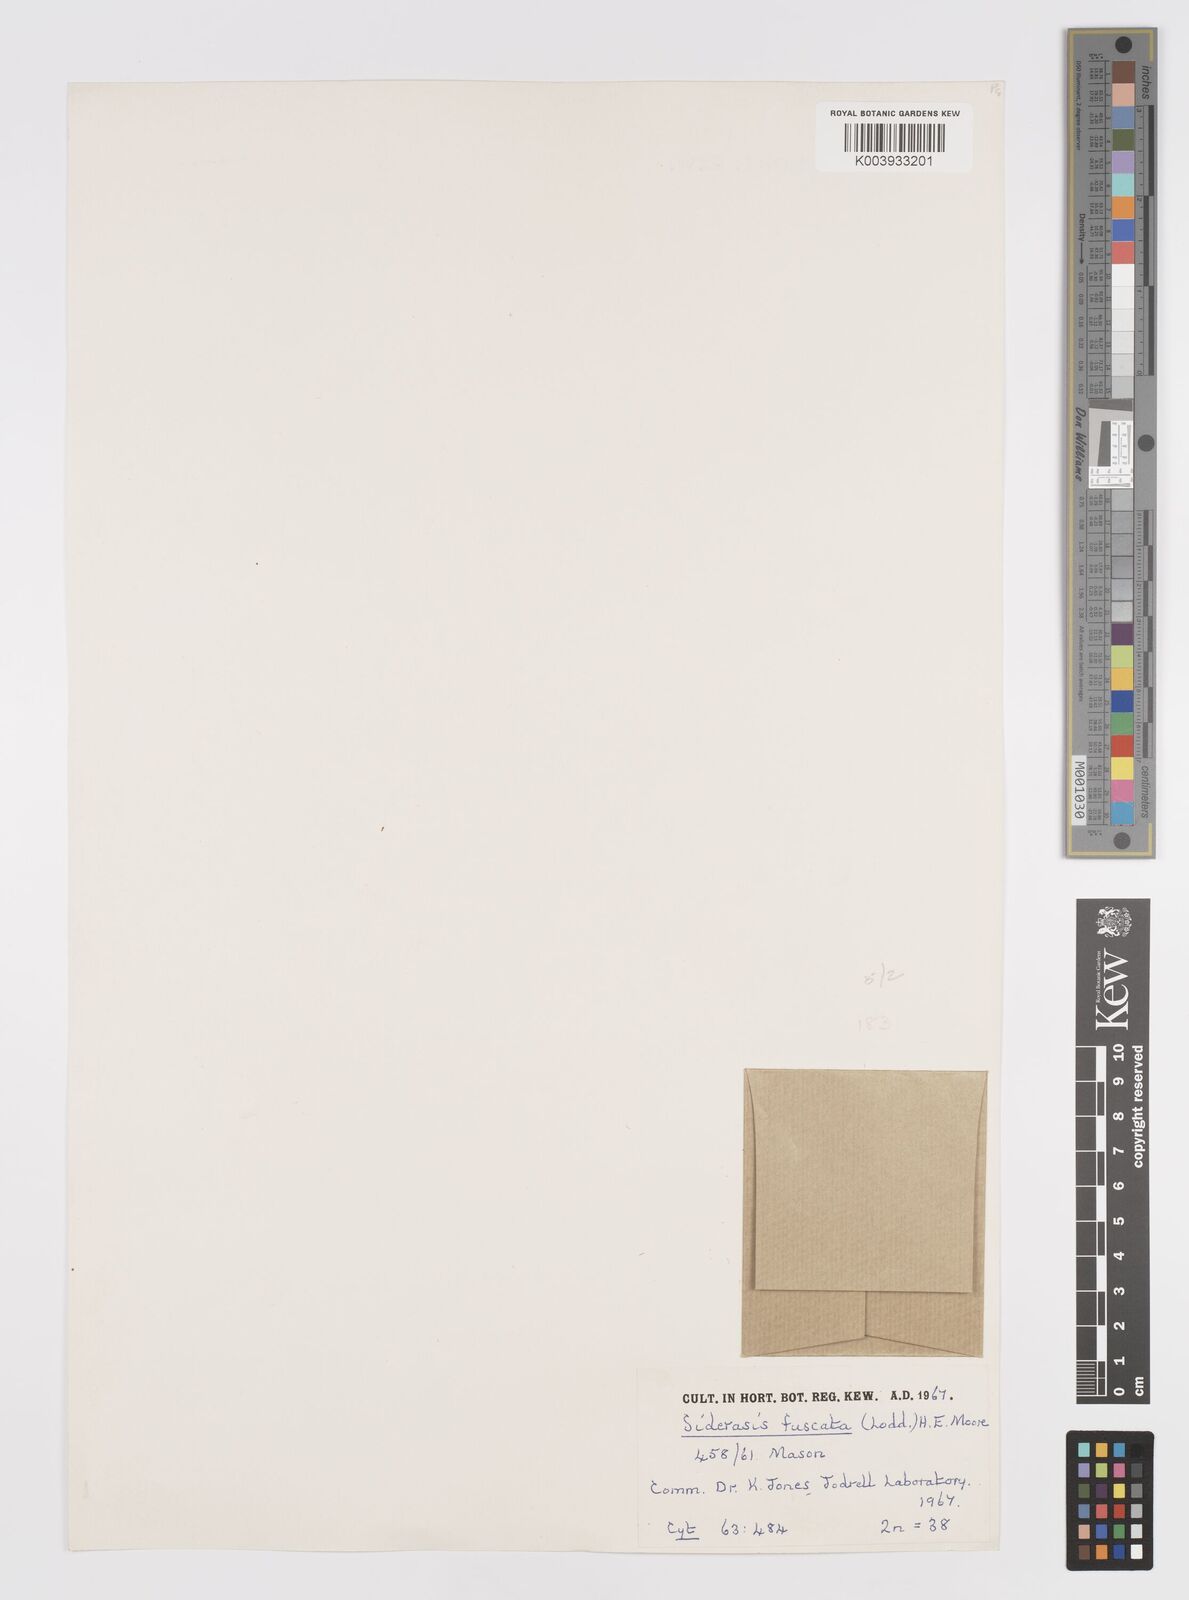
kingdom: Plantae
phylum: Tracheophyta
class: Liliopsida
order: Commelinales
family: Commelinaceae
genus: Siderasis
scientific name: Siderasis fuscata
